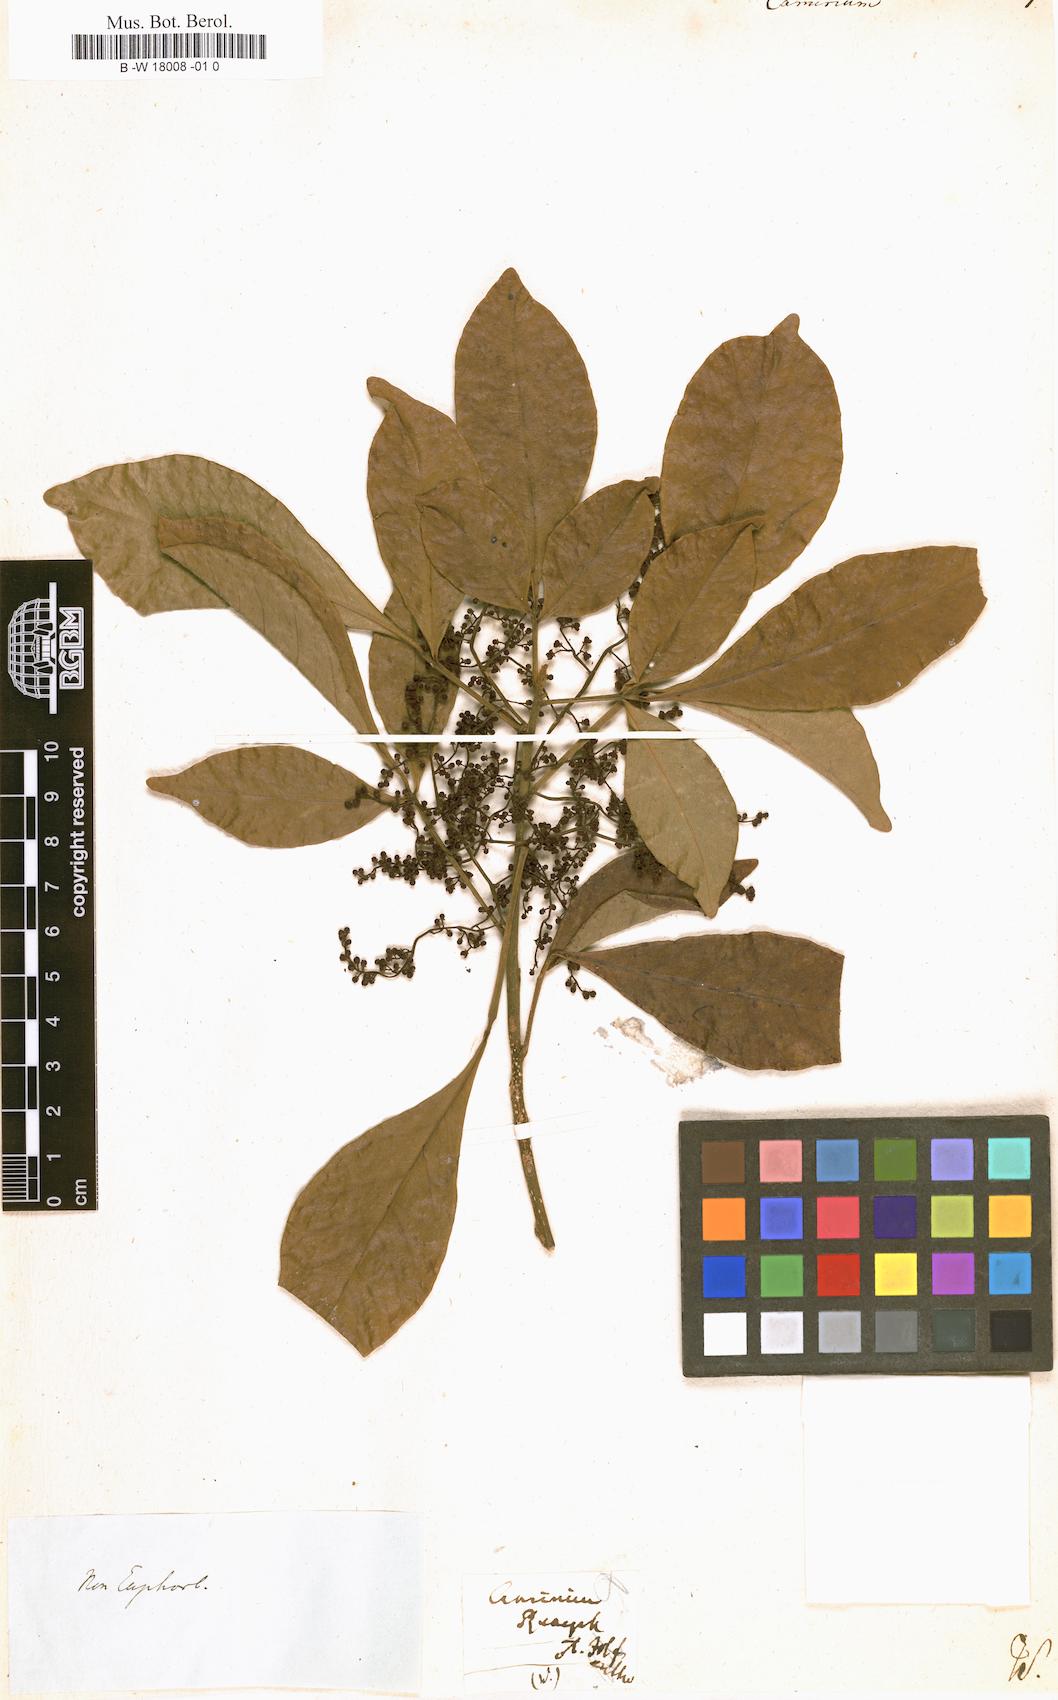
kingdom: Plantae
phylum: Tracheophyta
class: Magnoliopsida
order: Malpighiales
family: Euphorbiaceae
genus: Aleurites
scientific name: Aleurites
